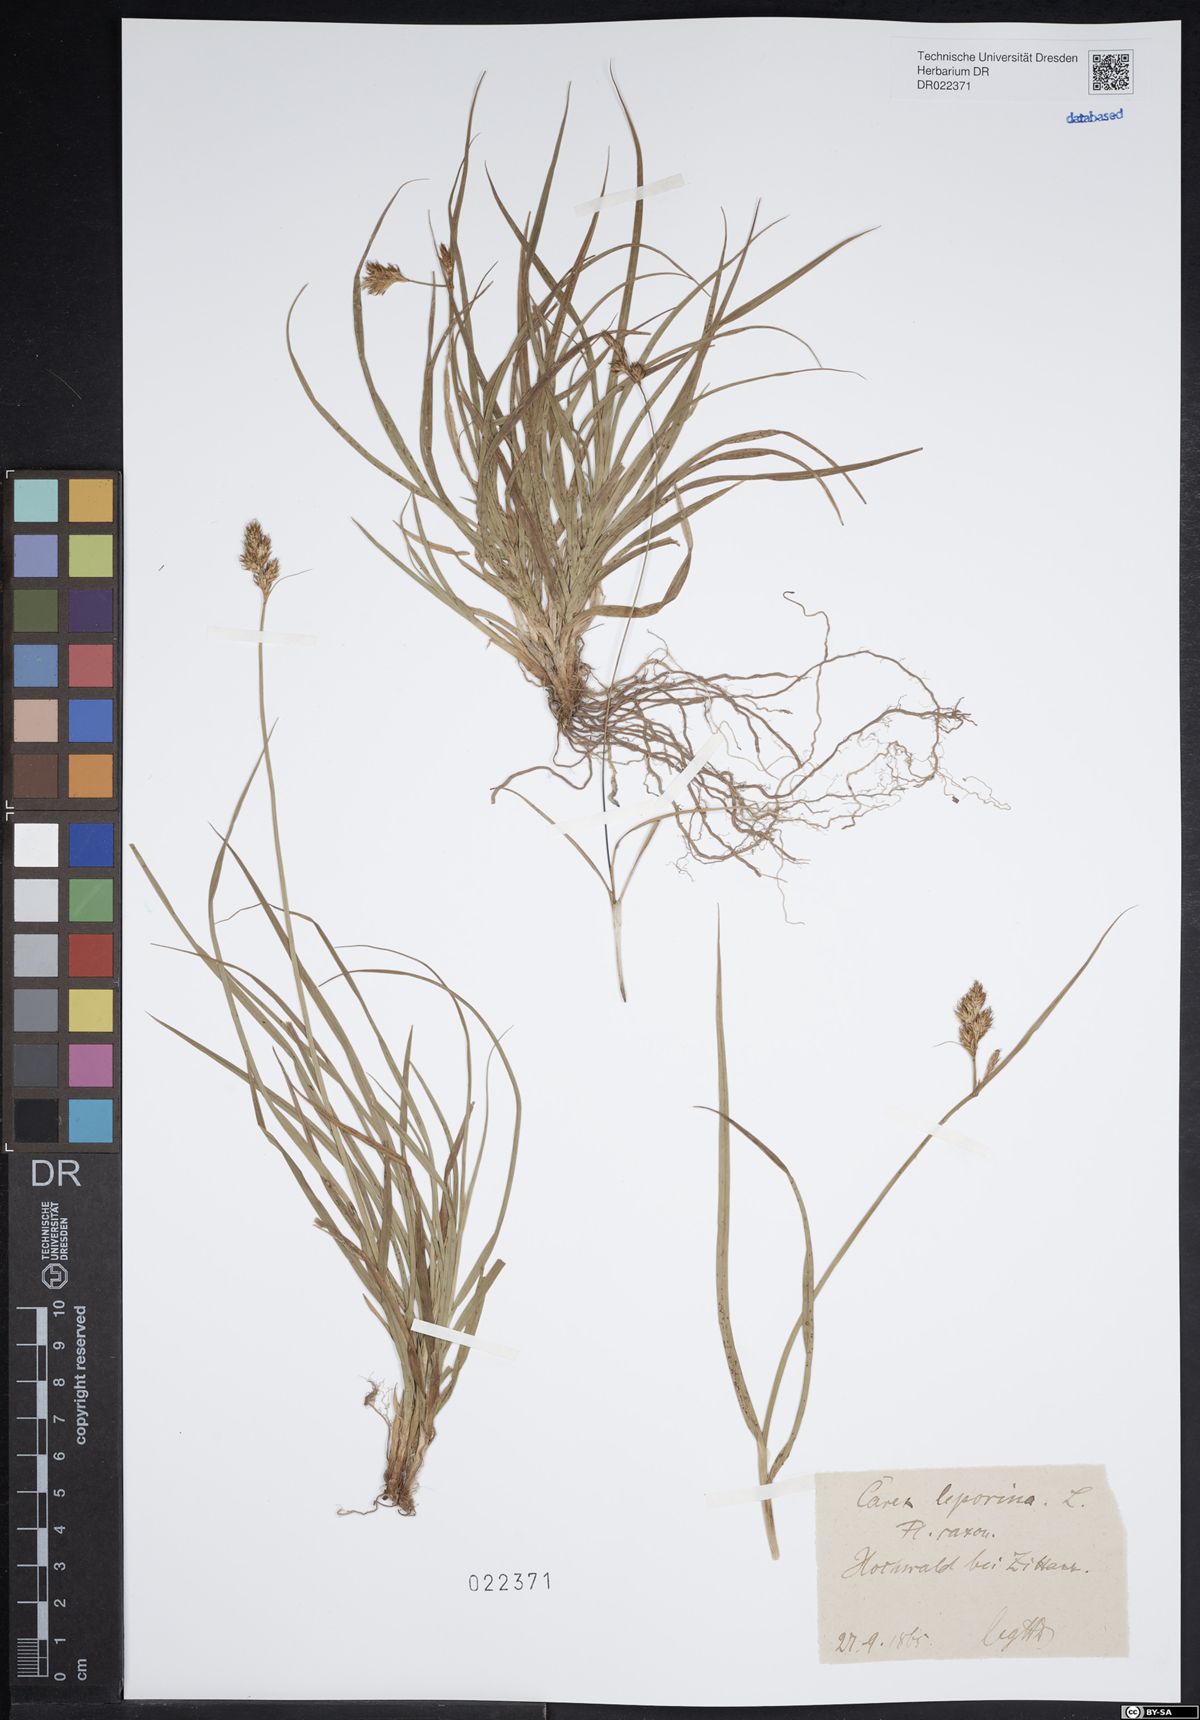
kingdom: Plantae
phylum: Tracheophyta
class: Liliopsida
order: Poales
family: Cyperaceae
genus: Carex
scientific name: Carex leporina
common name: Oval sedge
